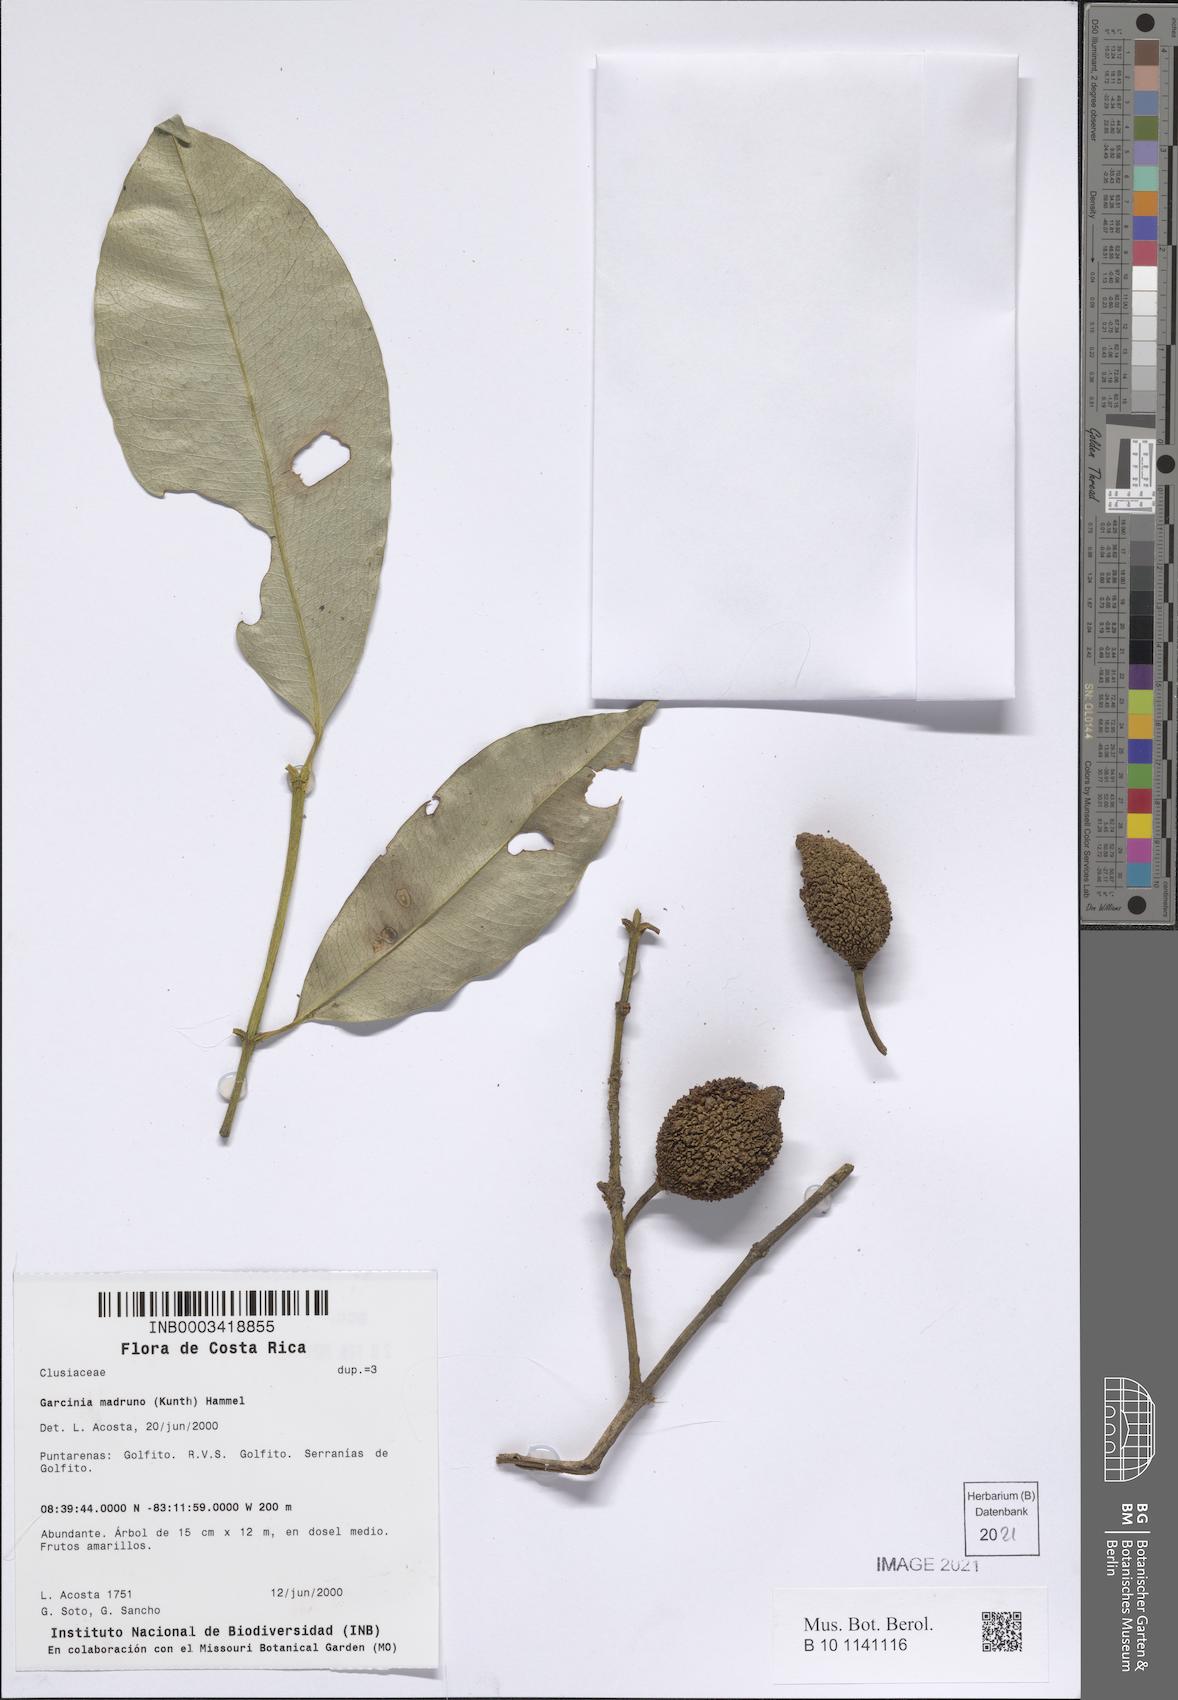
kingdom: Plantae
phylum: Tracheophyta
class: Magnoliopsida
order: Malpighiales
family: Clusiaceae
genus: Garcinia
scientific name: Garcinia madruno
